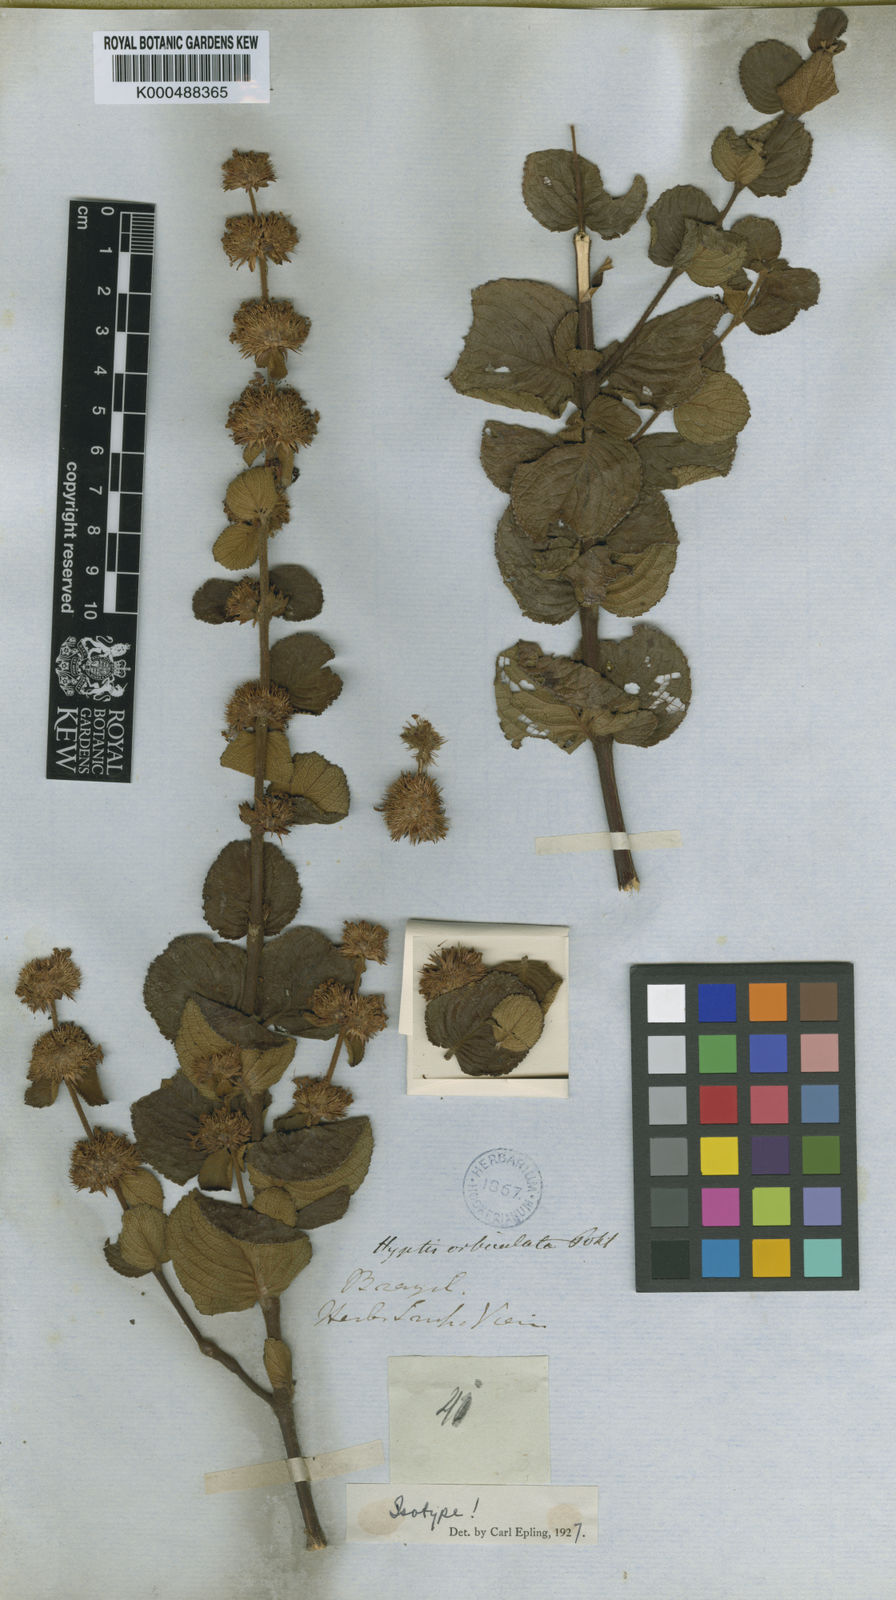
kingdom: Plantae
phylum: Tracheophyta
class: Magnoliopsida
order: Lamiales
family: Lamiaceae
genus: Hyptis
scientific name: Hyptis orbiculata
